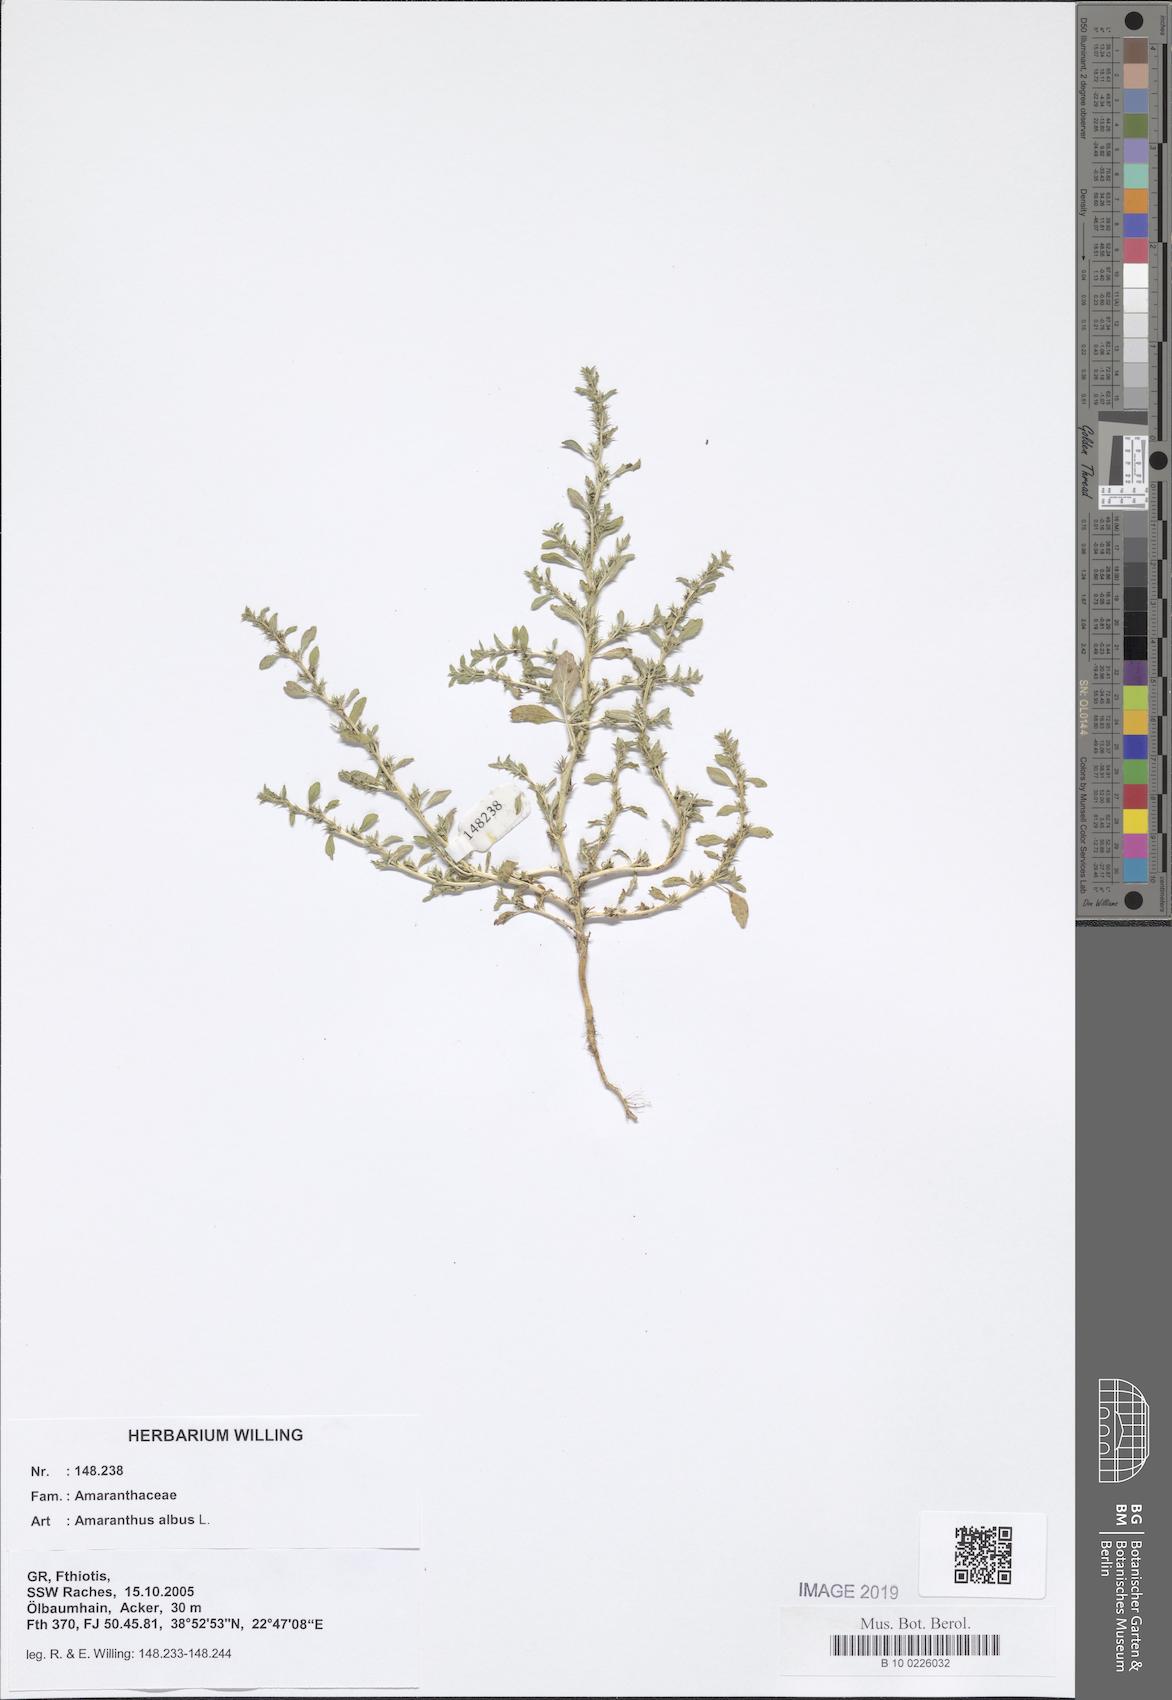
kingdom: Plantae
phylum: Tracheophyta
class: Magnoliopsida
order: Caryophyllales
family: Amaranthaceae
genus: Amaranthus
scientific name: Amaranthus albus
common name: White pigweed
